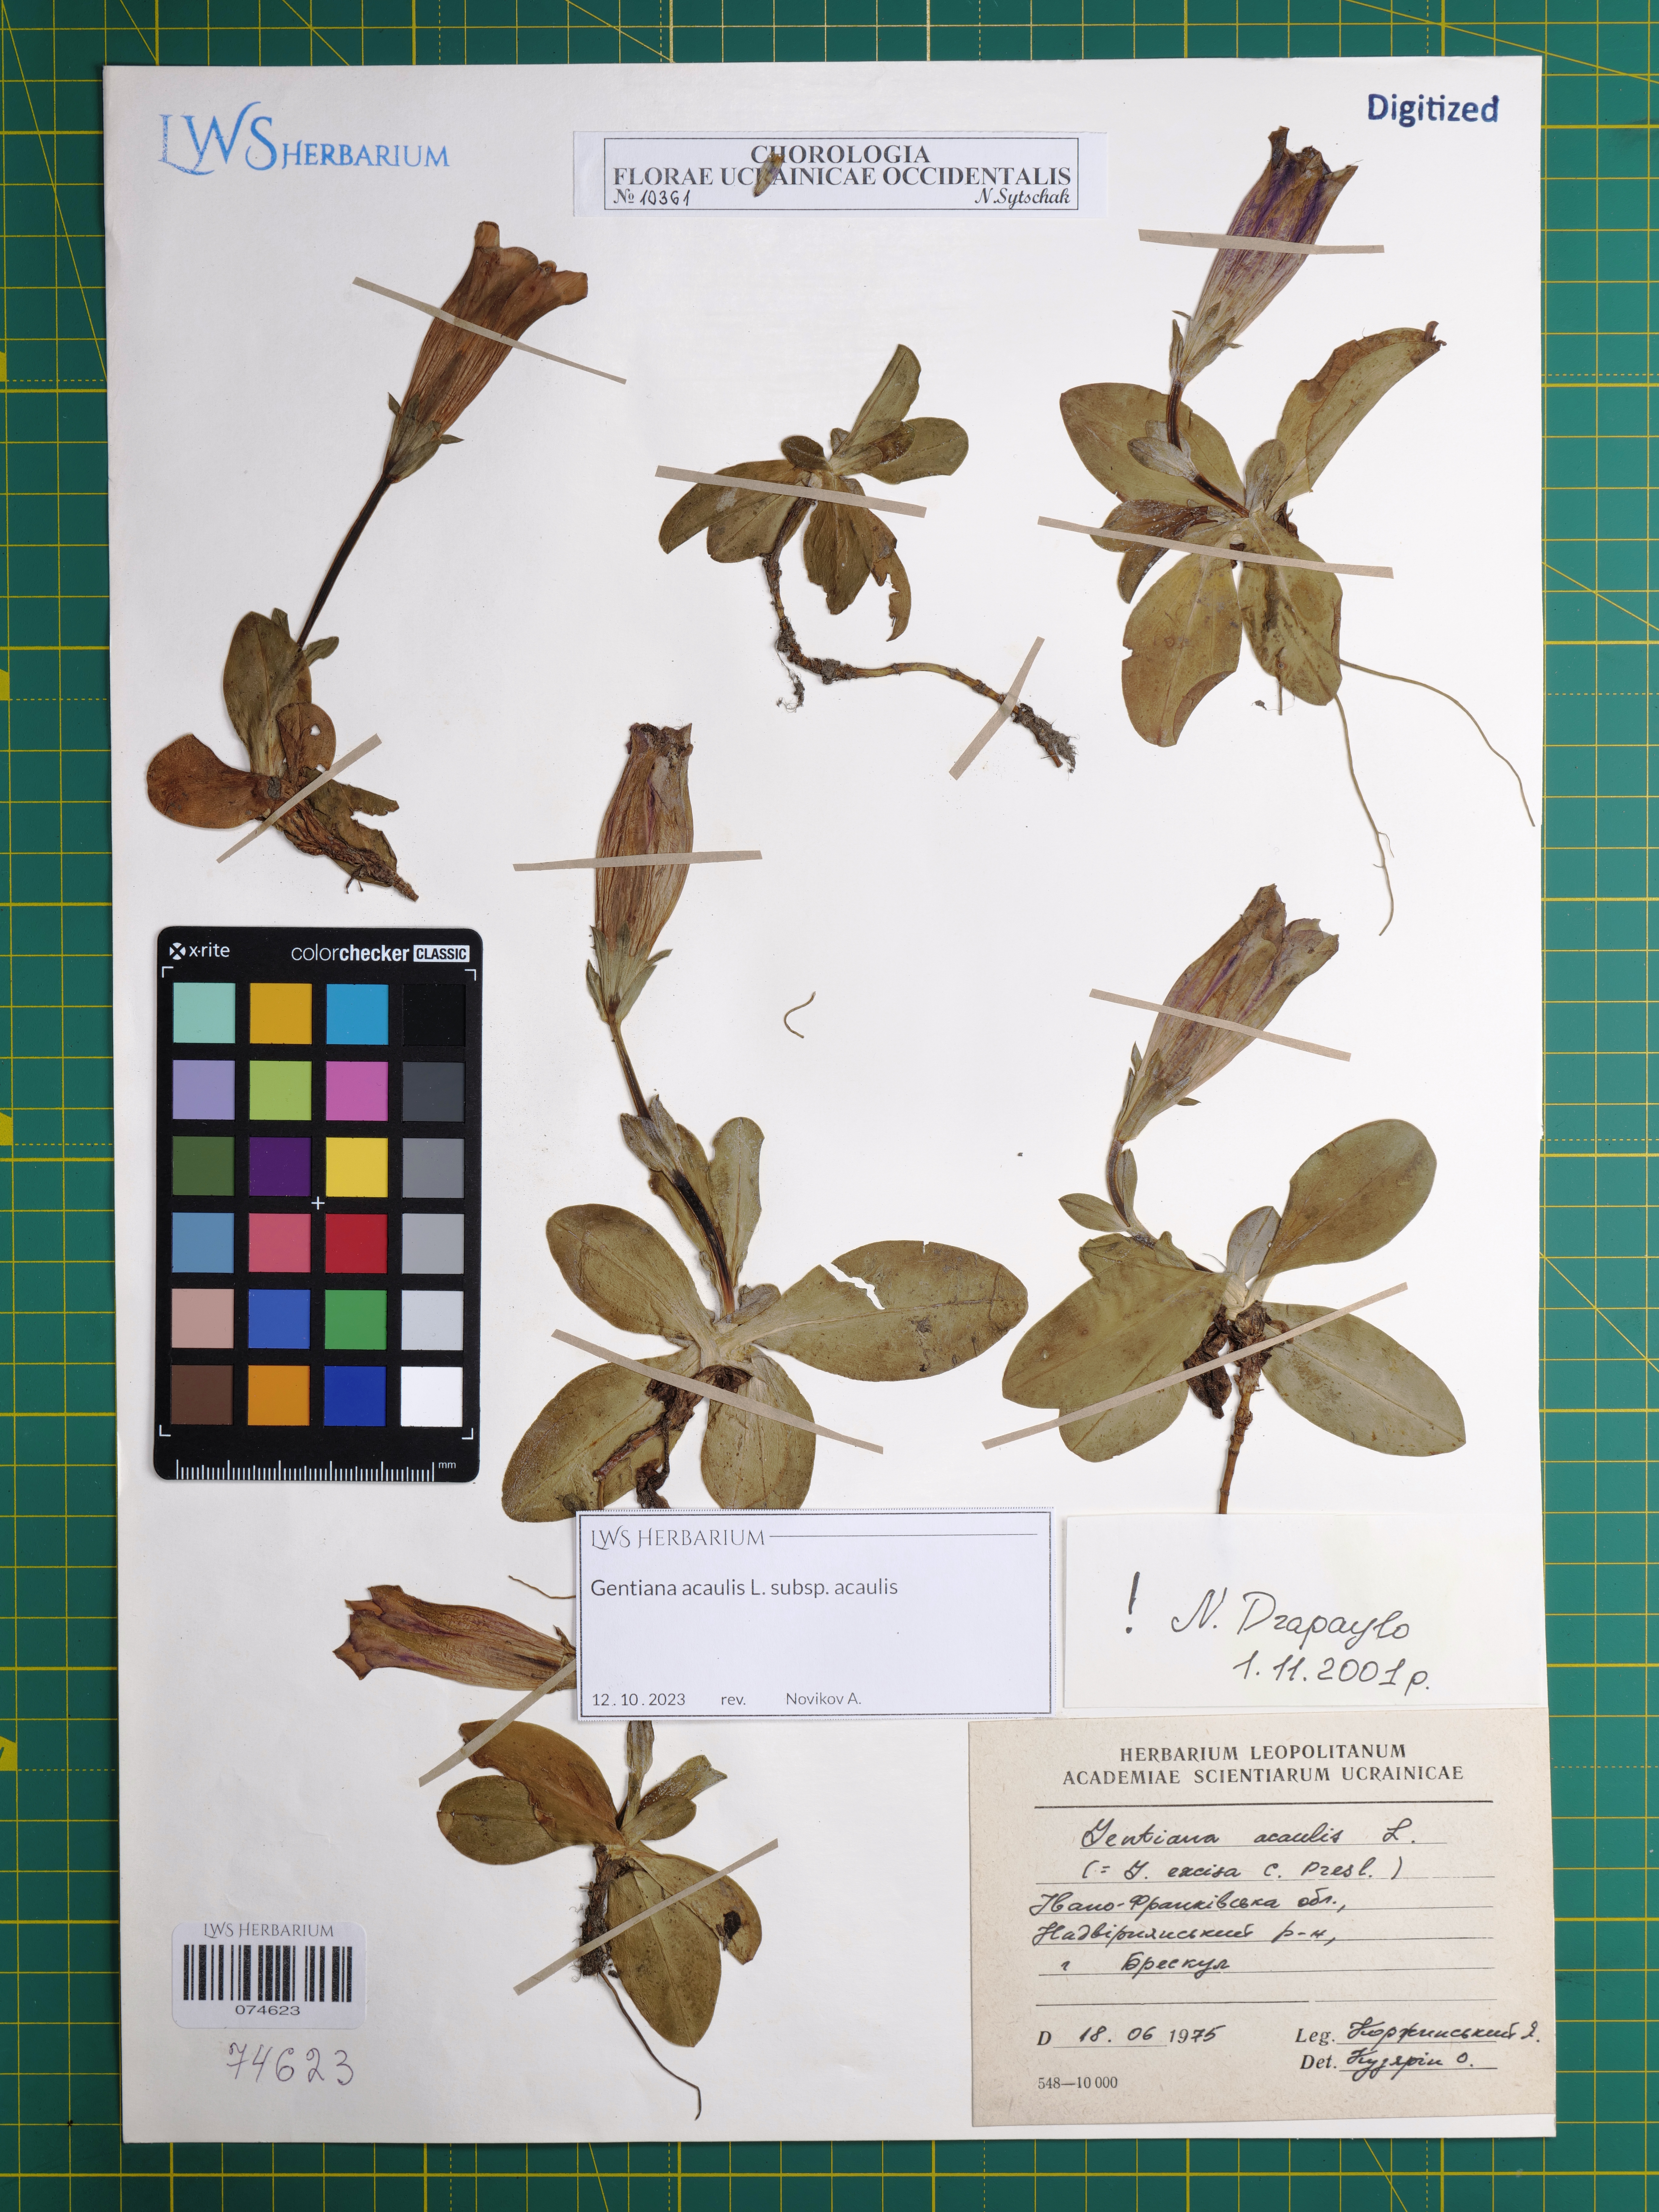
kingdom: Plantae
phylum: Tracheophyta
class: Magnoliopsida
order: Gentianales
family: Gentianaceae
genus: Gentiana
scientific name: Gentiana acaulis
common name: Trumpet gentian
